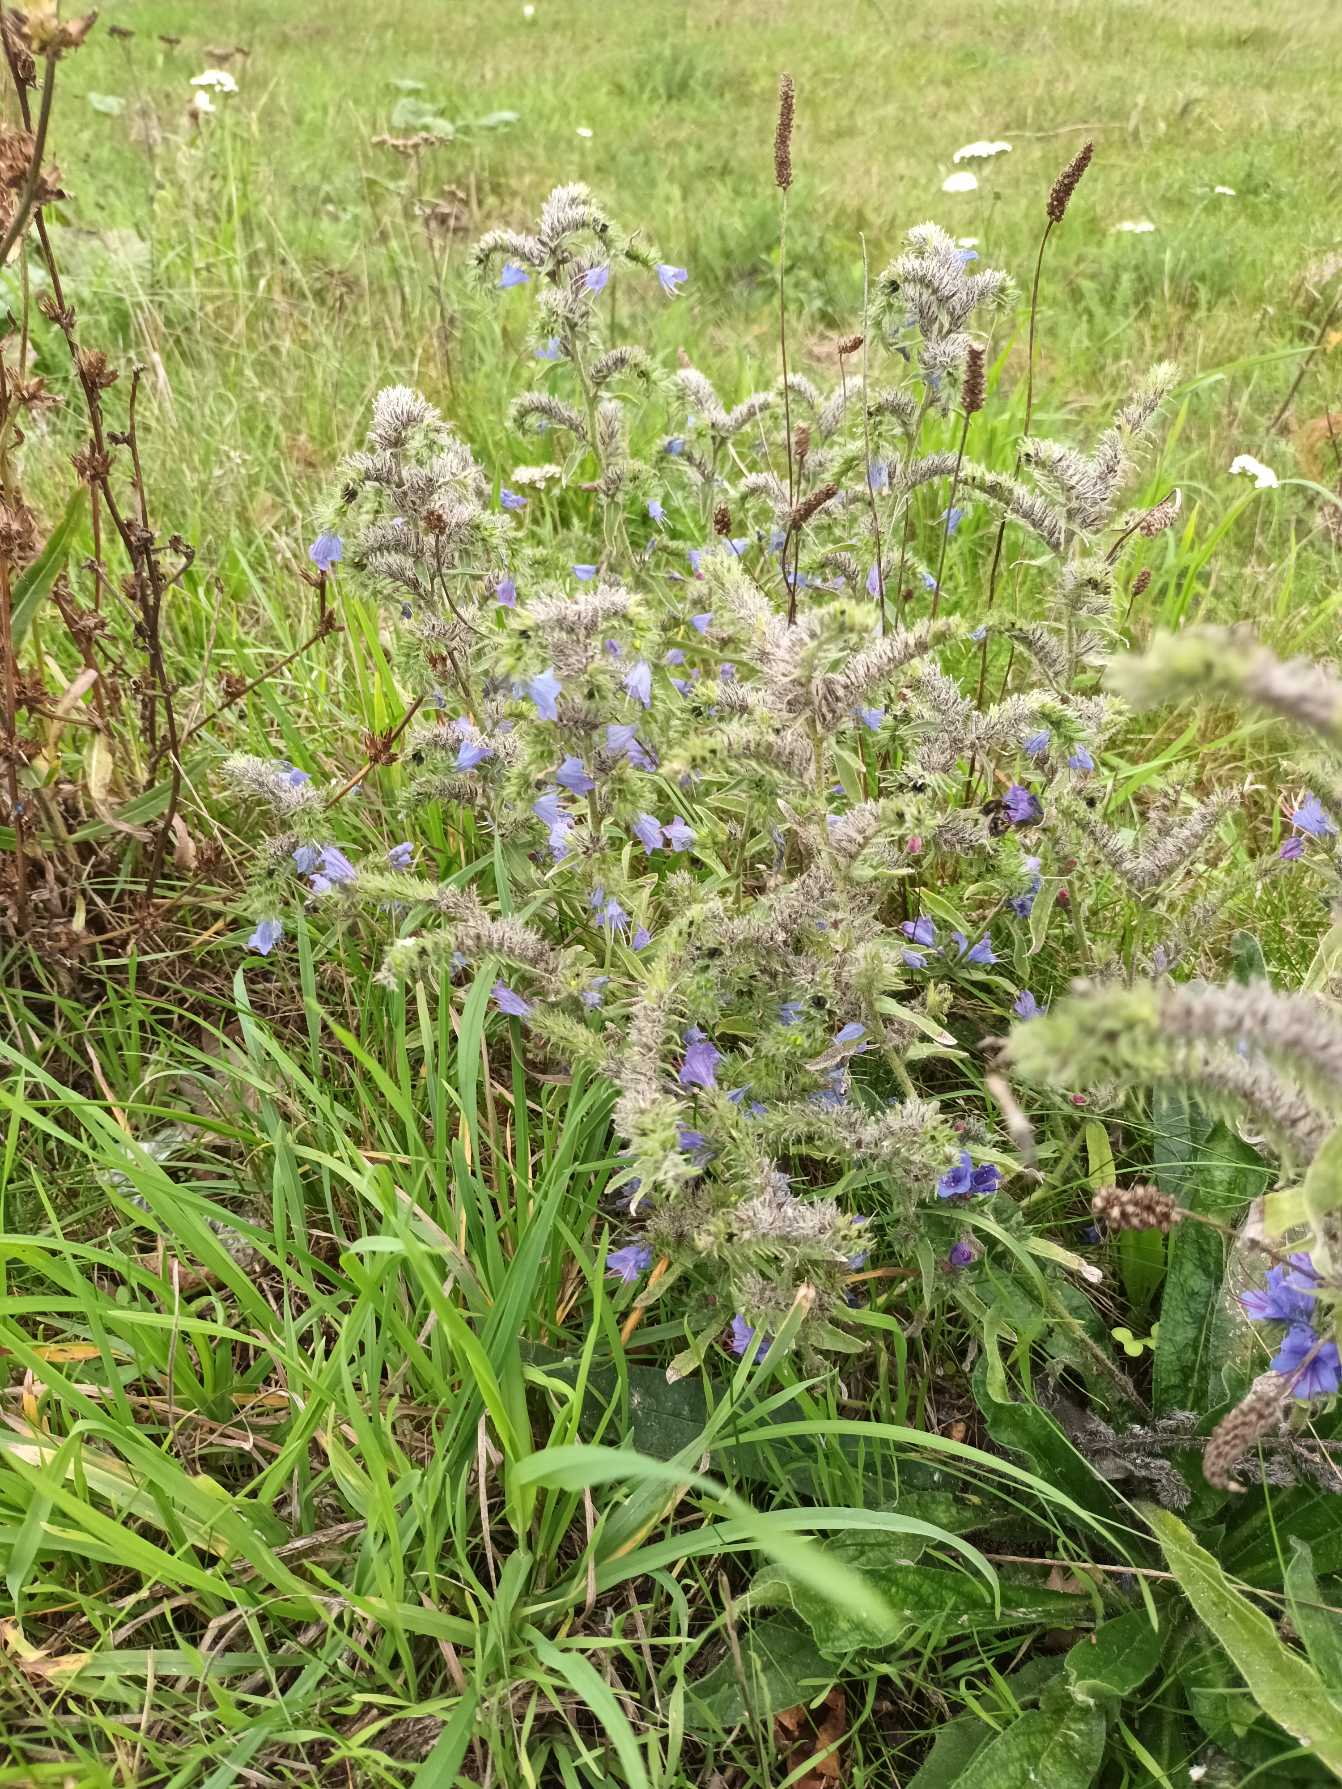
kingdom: Plantae
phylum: Tracheophyta
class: Magnoliopsida
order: Boraginales
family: Boraginaceae
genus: Echium
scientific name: Echium vulgare
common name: Slangehoved
